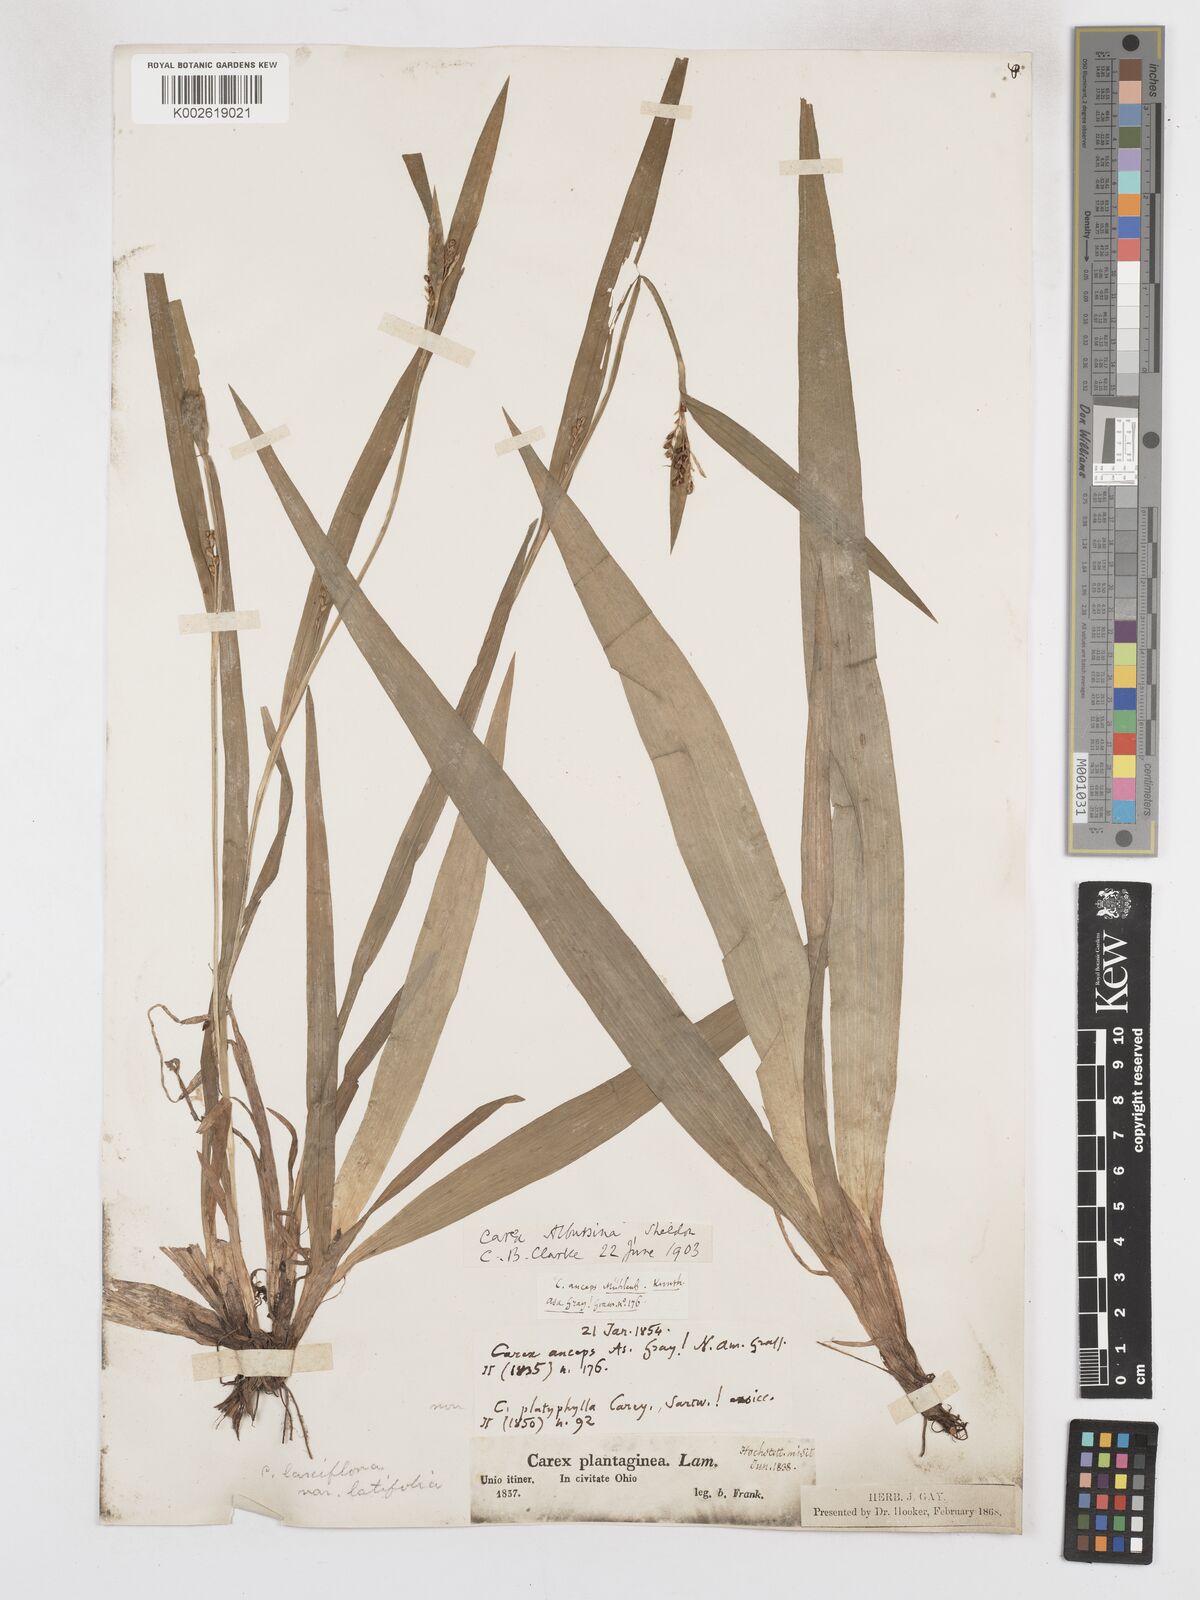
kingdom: Plantae
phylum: Tracheophyta
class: Liliopsida
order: Poales
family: Cyperaceae
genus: Carex
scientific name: Carex albursina
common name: Blunt-scale wood sedge
